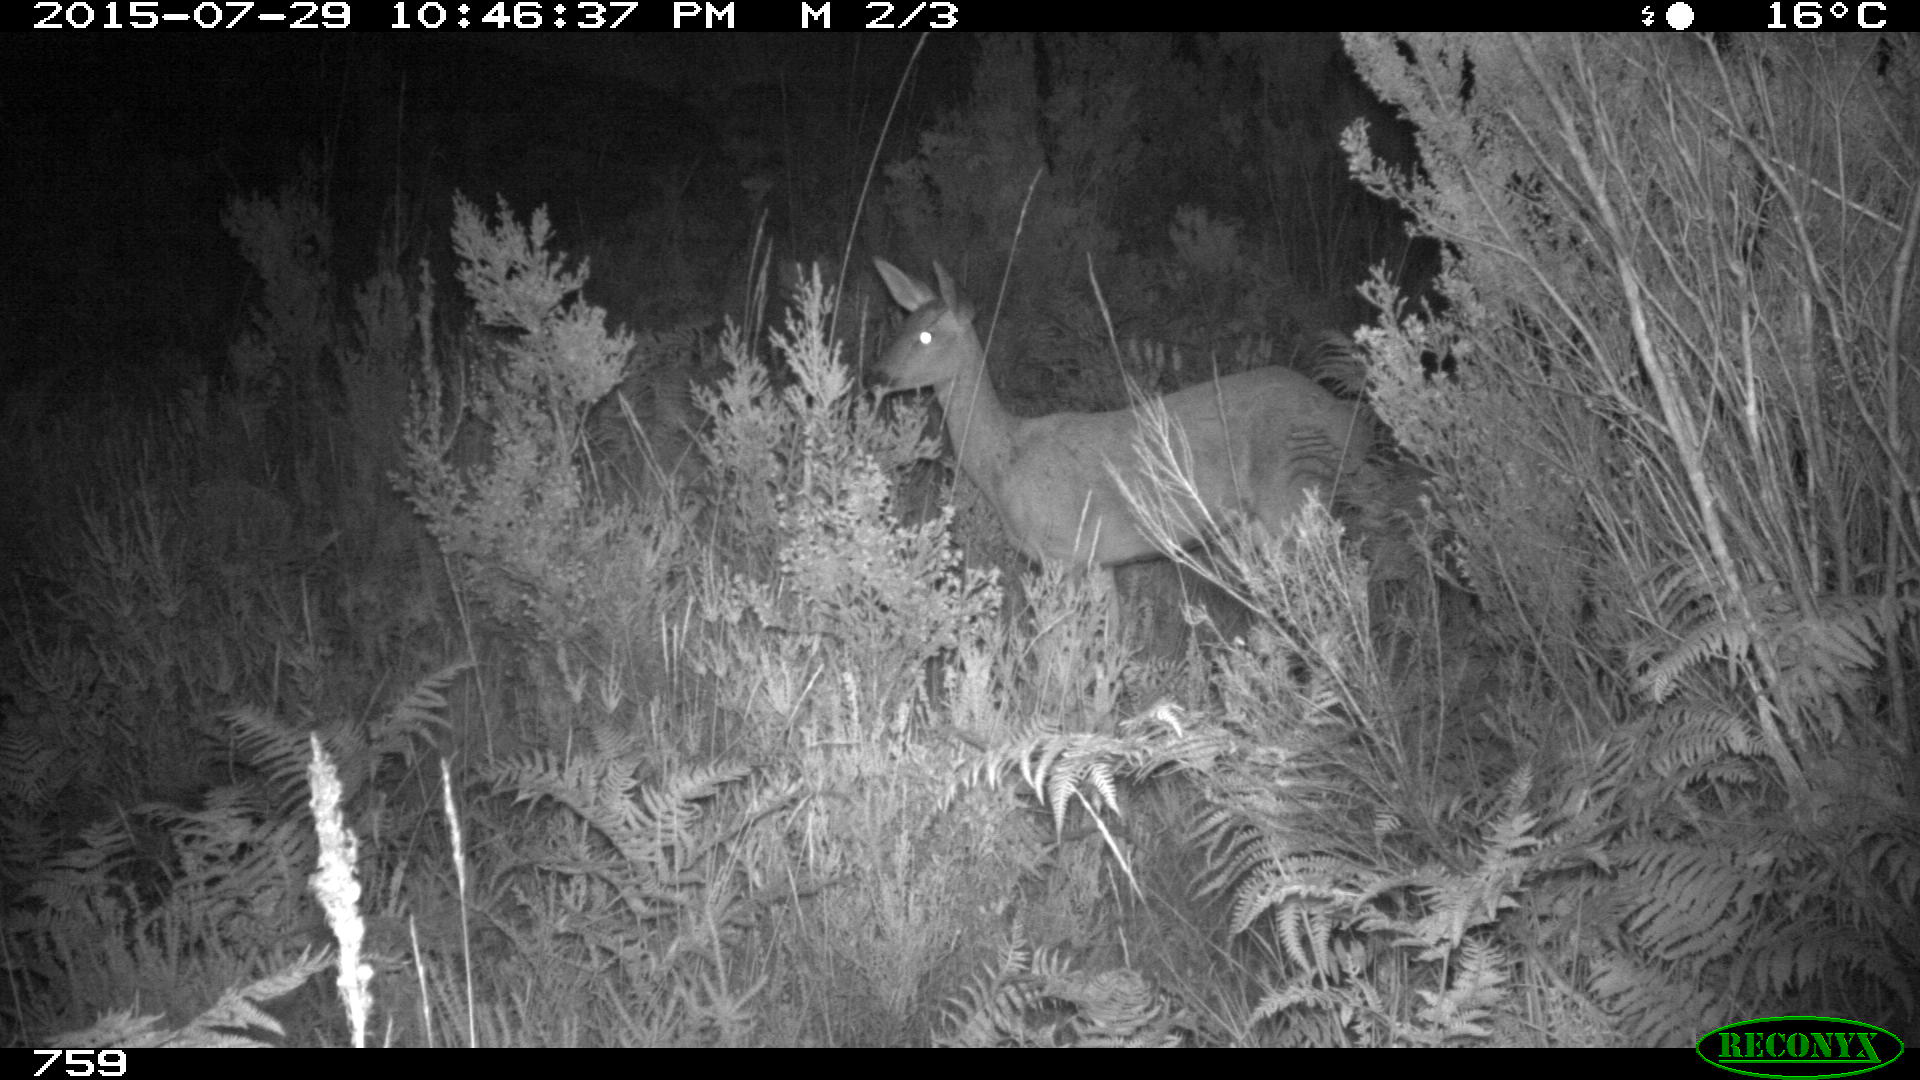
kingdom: Animalia
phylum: Chordata
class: Mammalia
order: Artiodactyla
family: Cervidae
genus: Capreolus
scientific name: Capreolus capreolus
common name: Western roe deer
